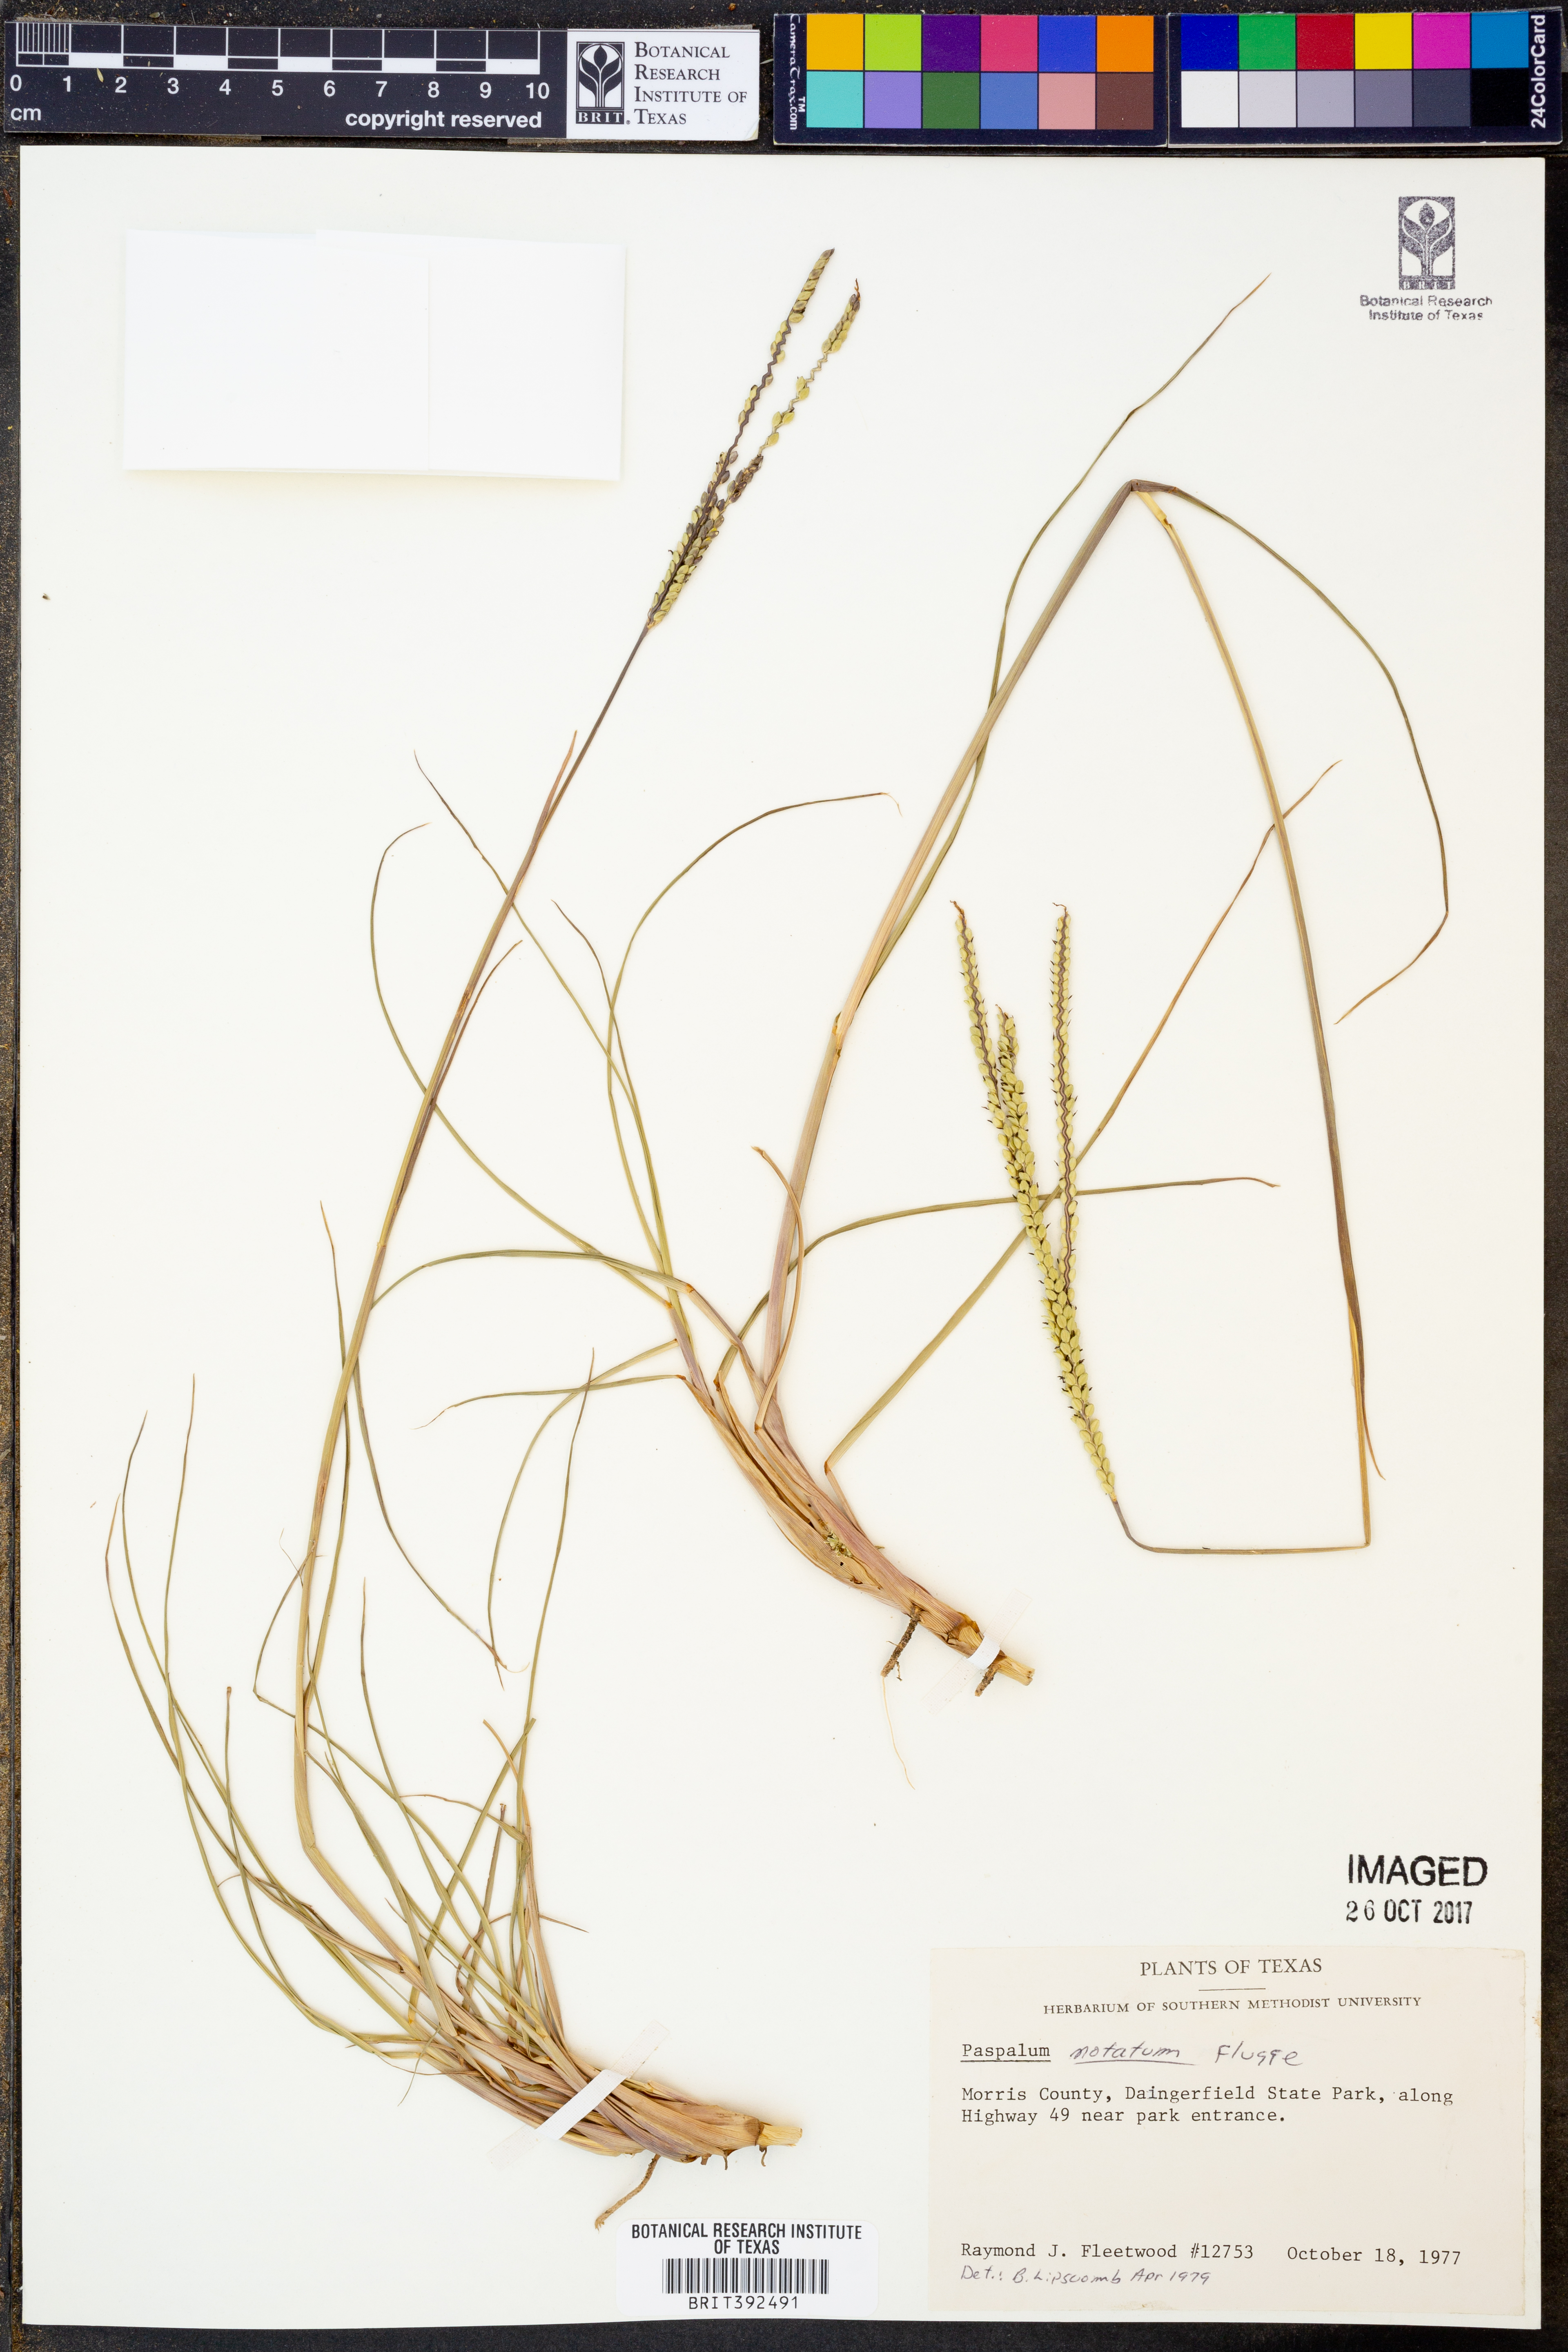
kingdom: Plantae
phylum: Tracheophyta
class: Liliopsida
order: Poales
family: Poaceae
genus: Paspalum
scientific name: Paspalum notatum
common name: Bahiagrass
